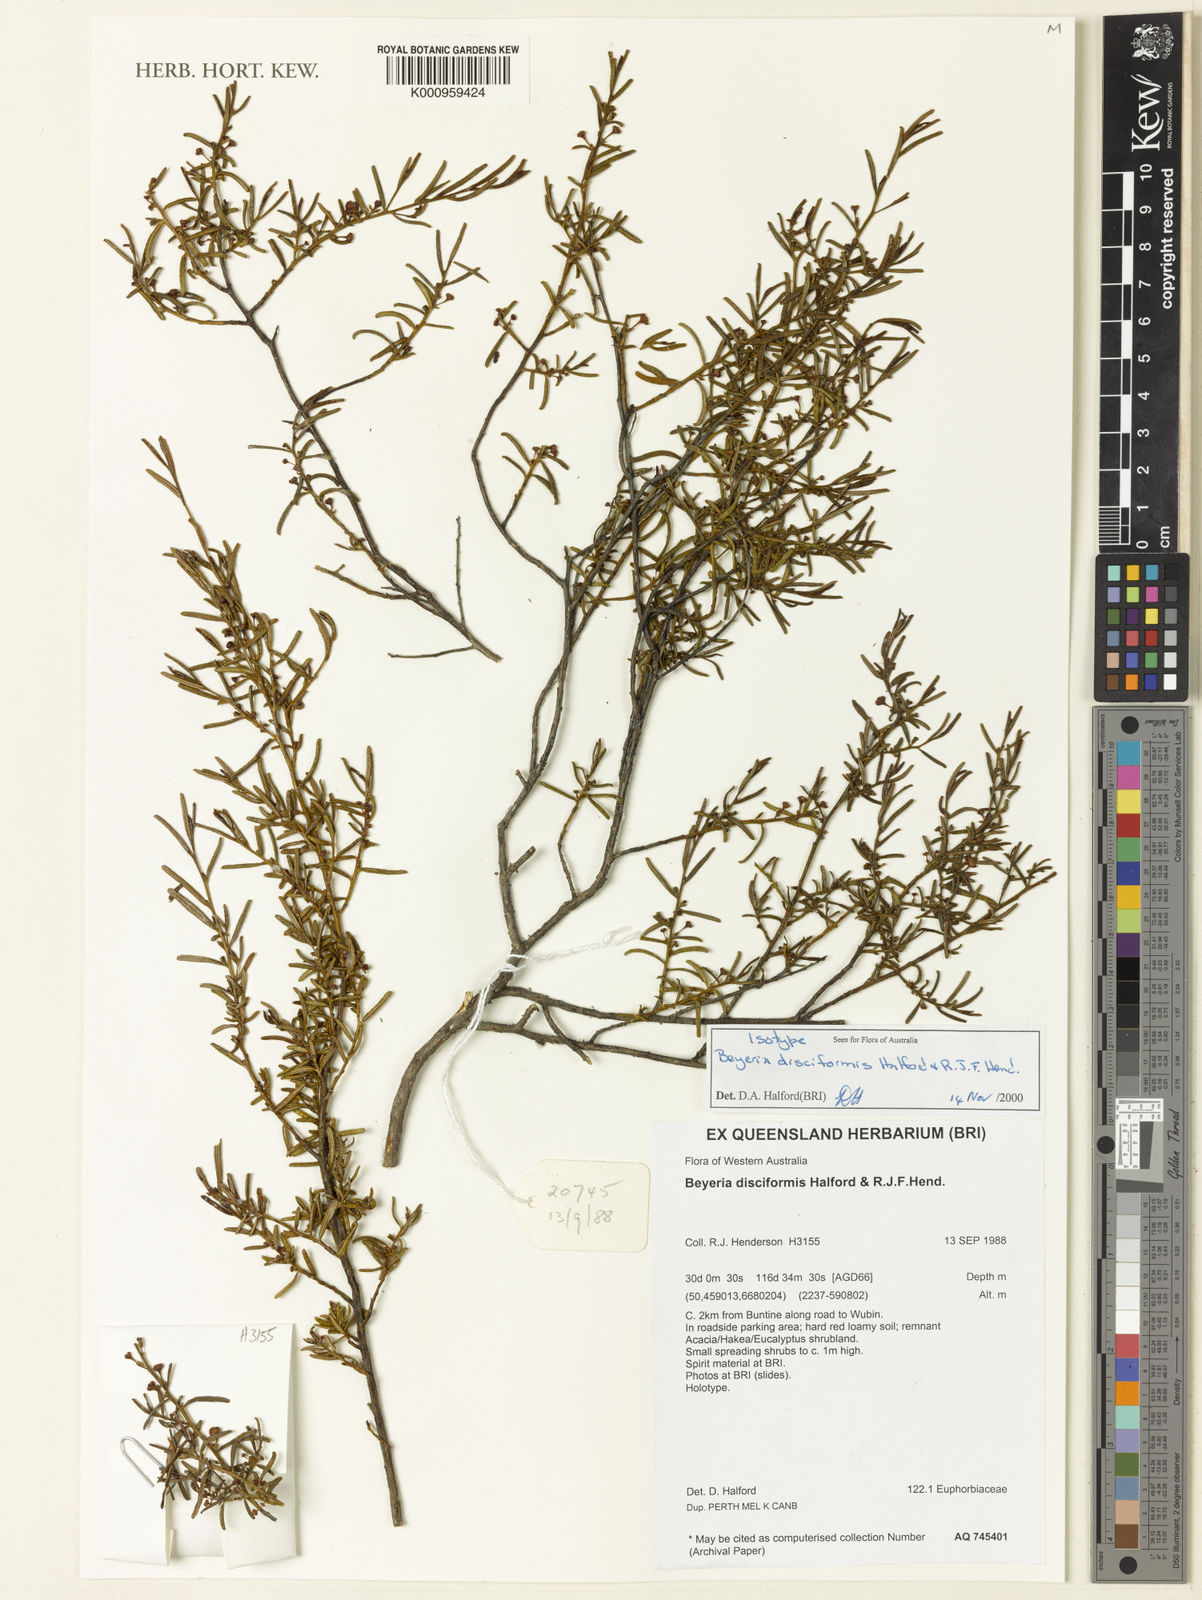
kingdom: Plantae
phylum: Tracheophyta
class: Magnoliopsida
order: Malpighiales
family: Euphorbiaceae
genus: Beyeria
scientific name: Beyeria disciformis
